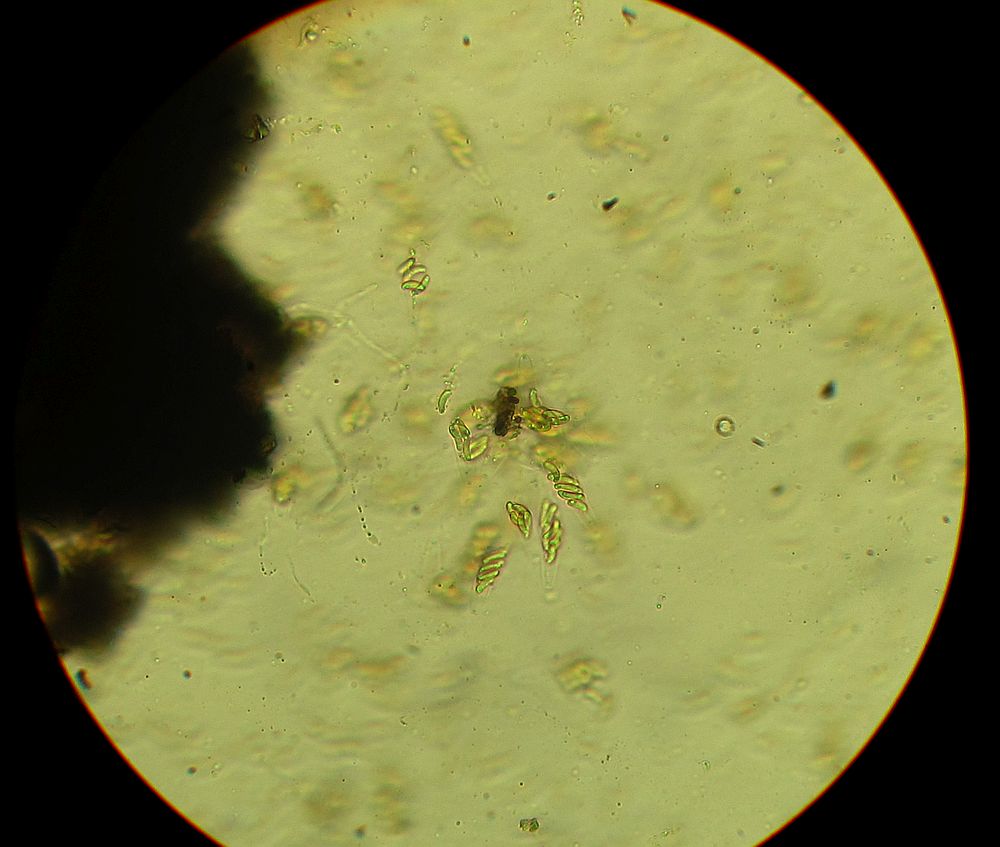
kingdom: Fungi
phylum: Ascomycota
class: Sordariomycetes
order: Xylariales
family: Diatrypaceae
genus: Eutypa
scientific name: Eutypa lata
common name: almindelig kulskorpe
